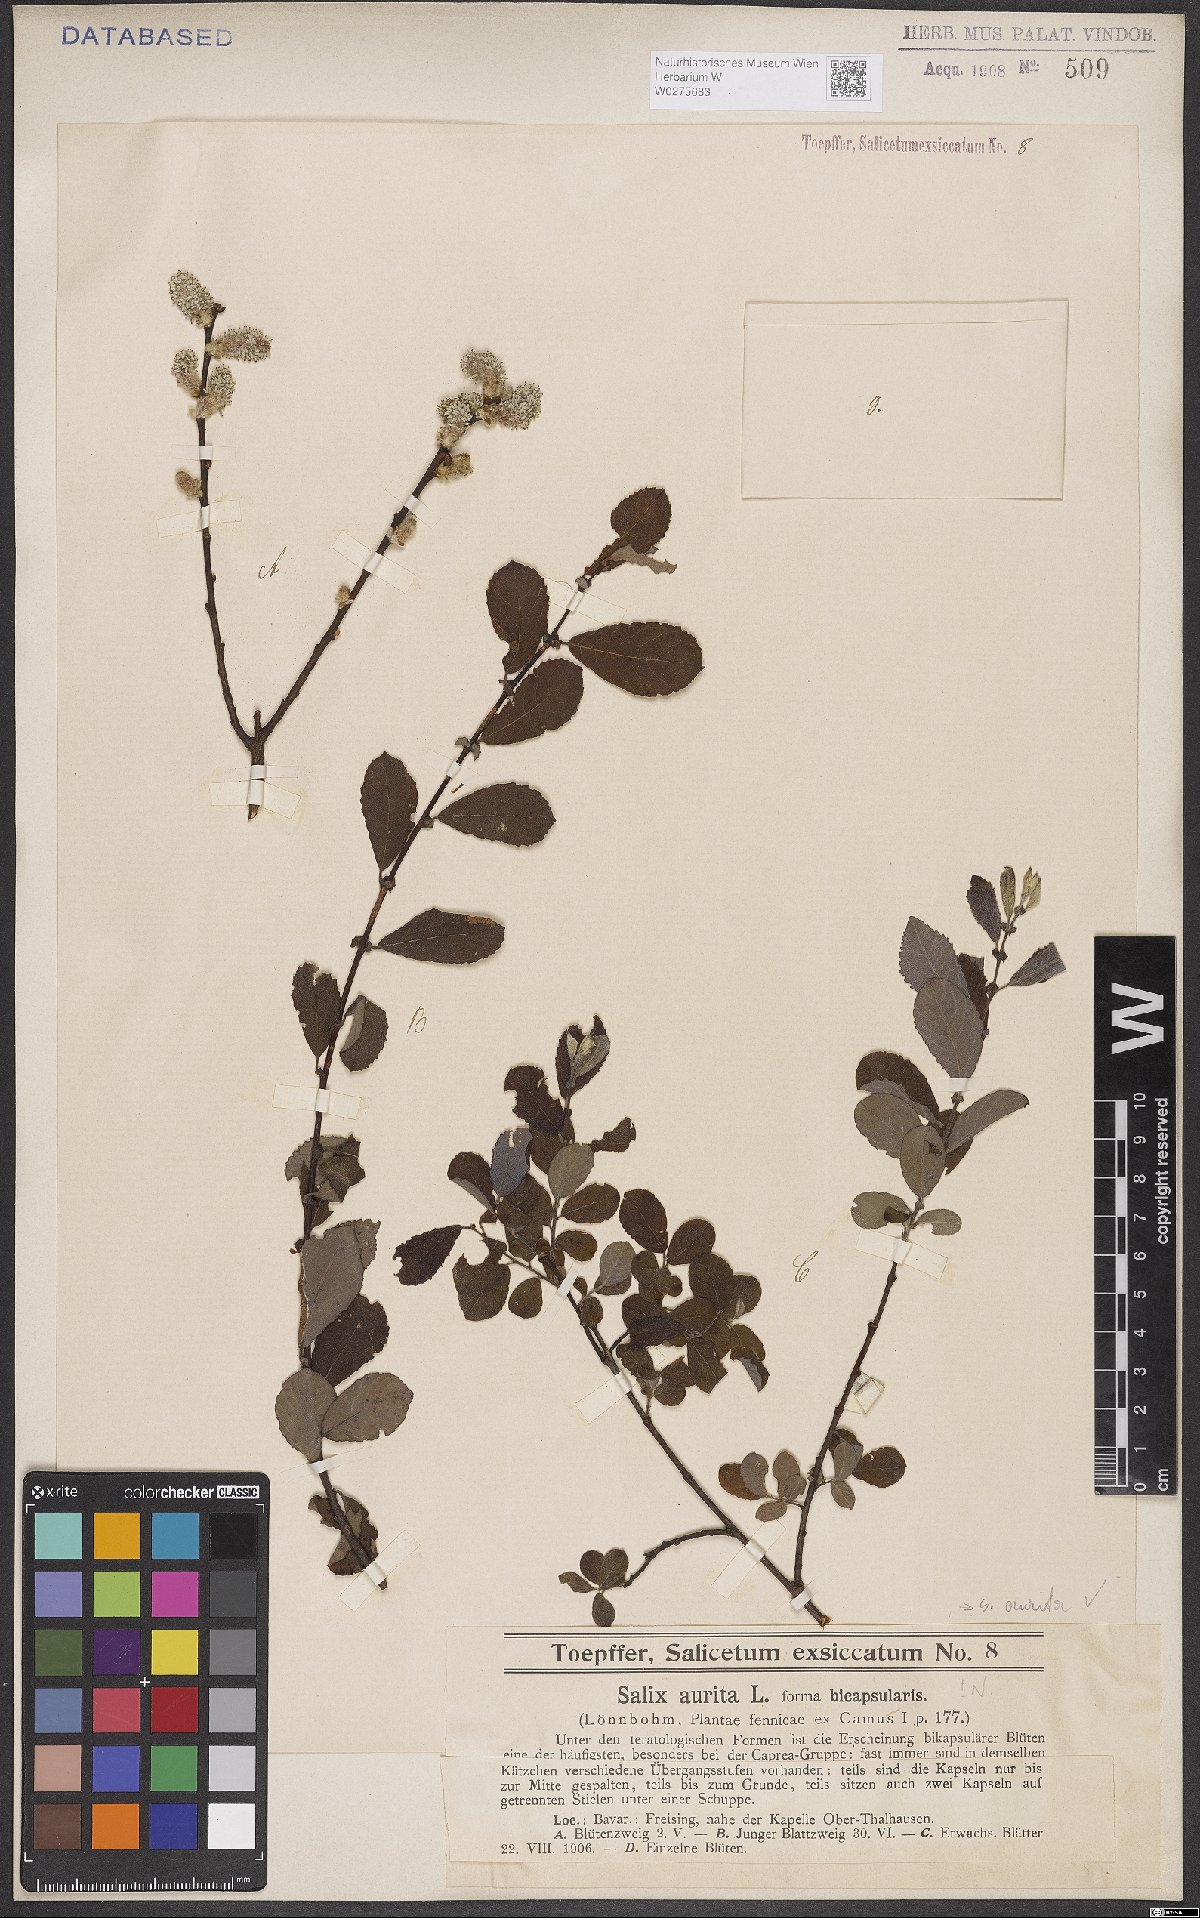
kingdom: Plantae
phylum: Tracheophyta
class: Magnoliopsida
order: Malpighiales
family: Salicaceae
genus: Salix
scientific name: Salix aurita
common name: Eared willow
